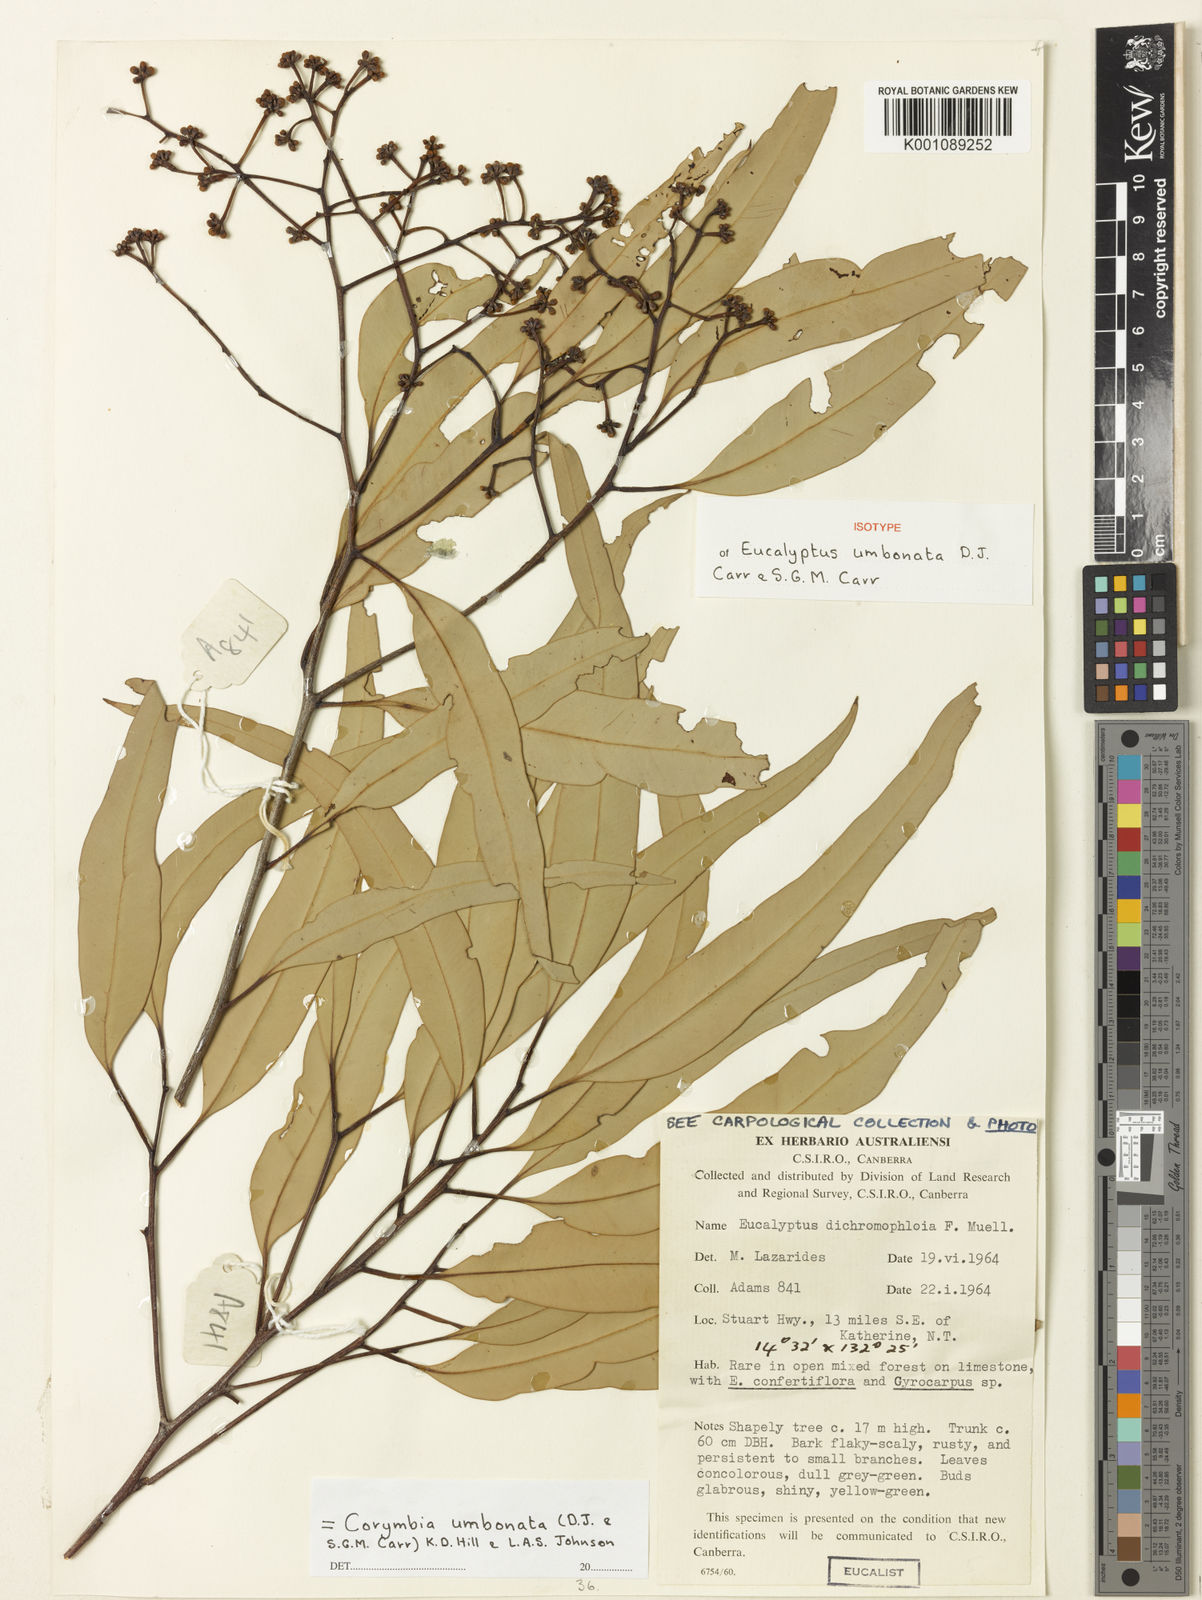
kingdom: Plantae
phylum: Tracheophyta
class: Magnoliopsida
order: Myrtales
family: Myrtaceae
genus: Corymbia
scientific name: Corymbia umbonata
